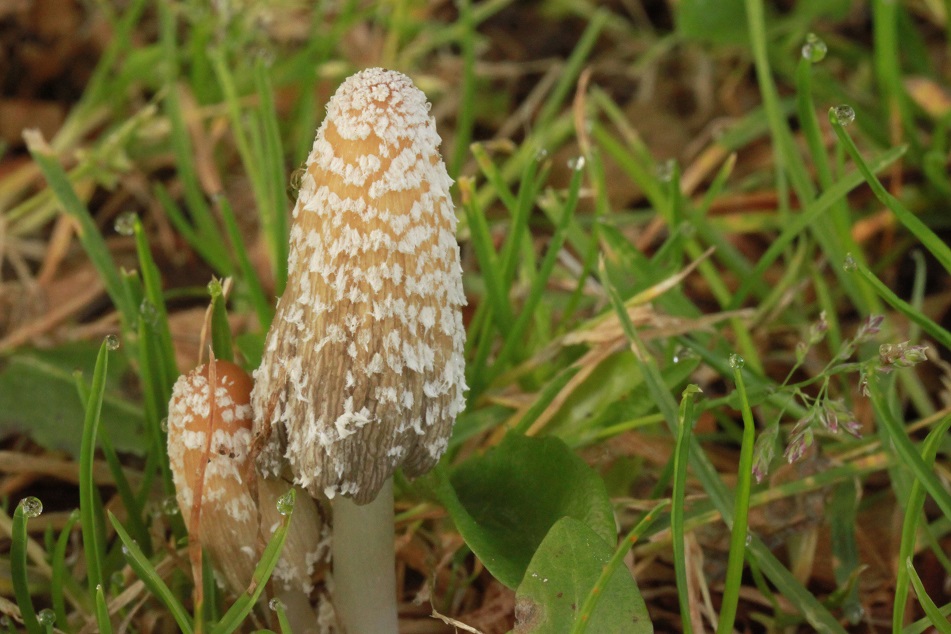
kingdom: Fungi
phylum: Basidiomycota
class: Agaricomycetes
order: Agaricales
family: Psathyrellaceae
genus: Coprinellus
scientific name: Coprinellus flocculosus
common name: fnugget blækhat
